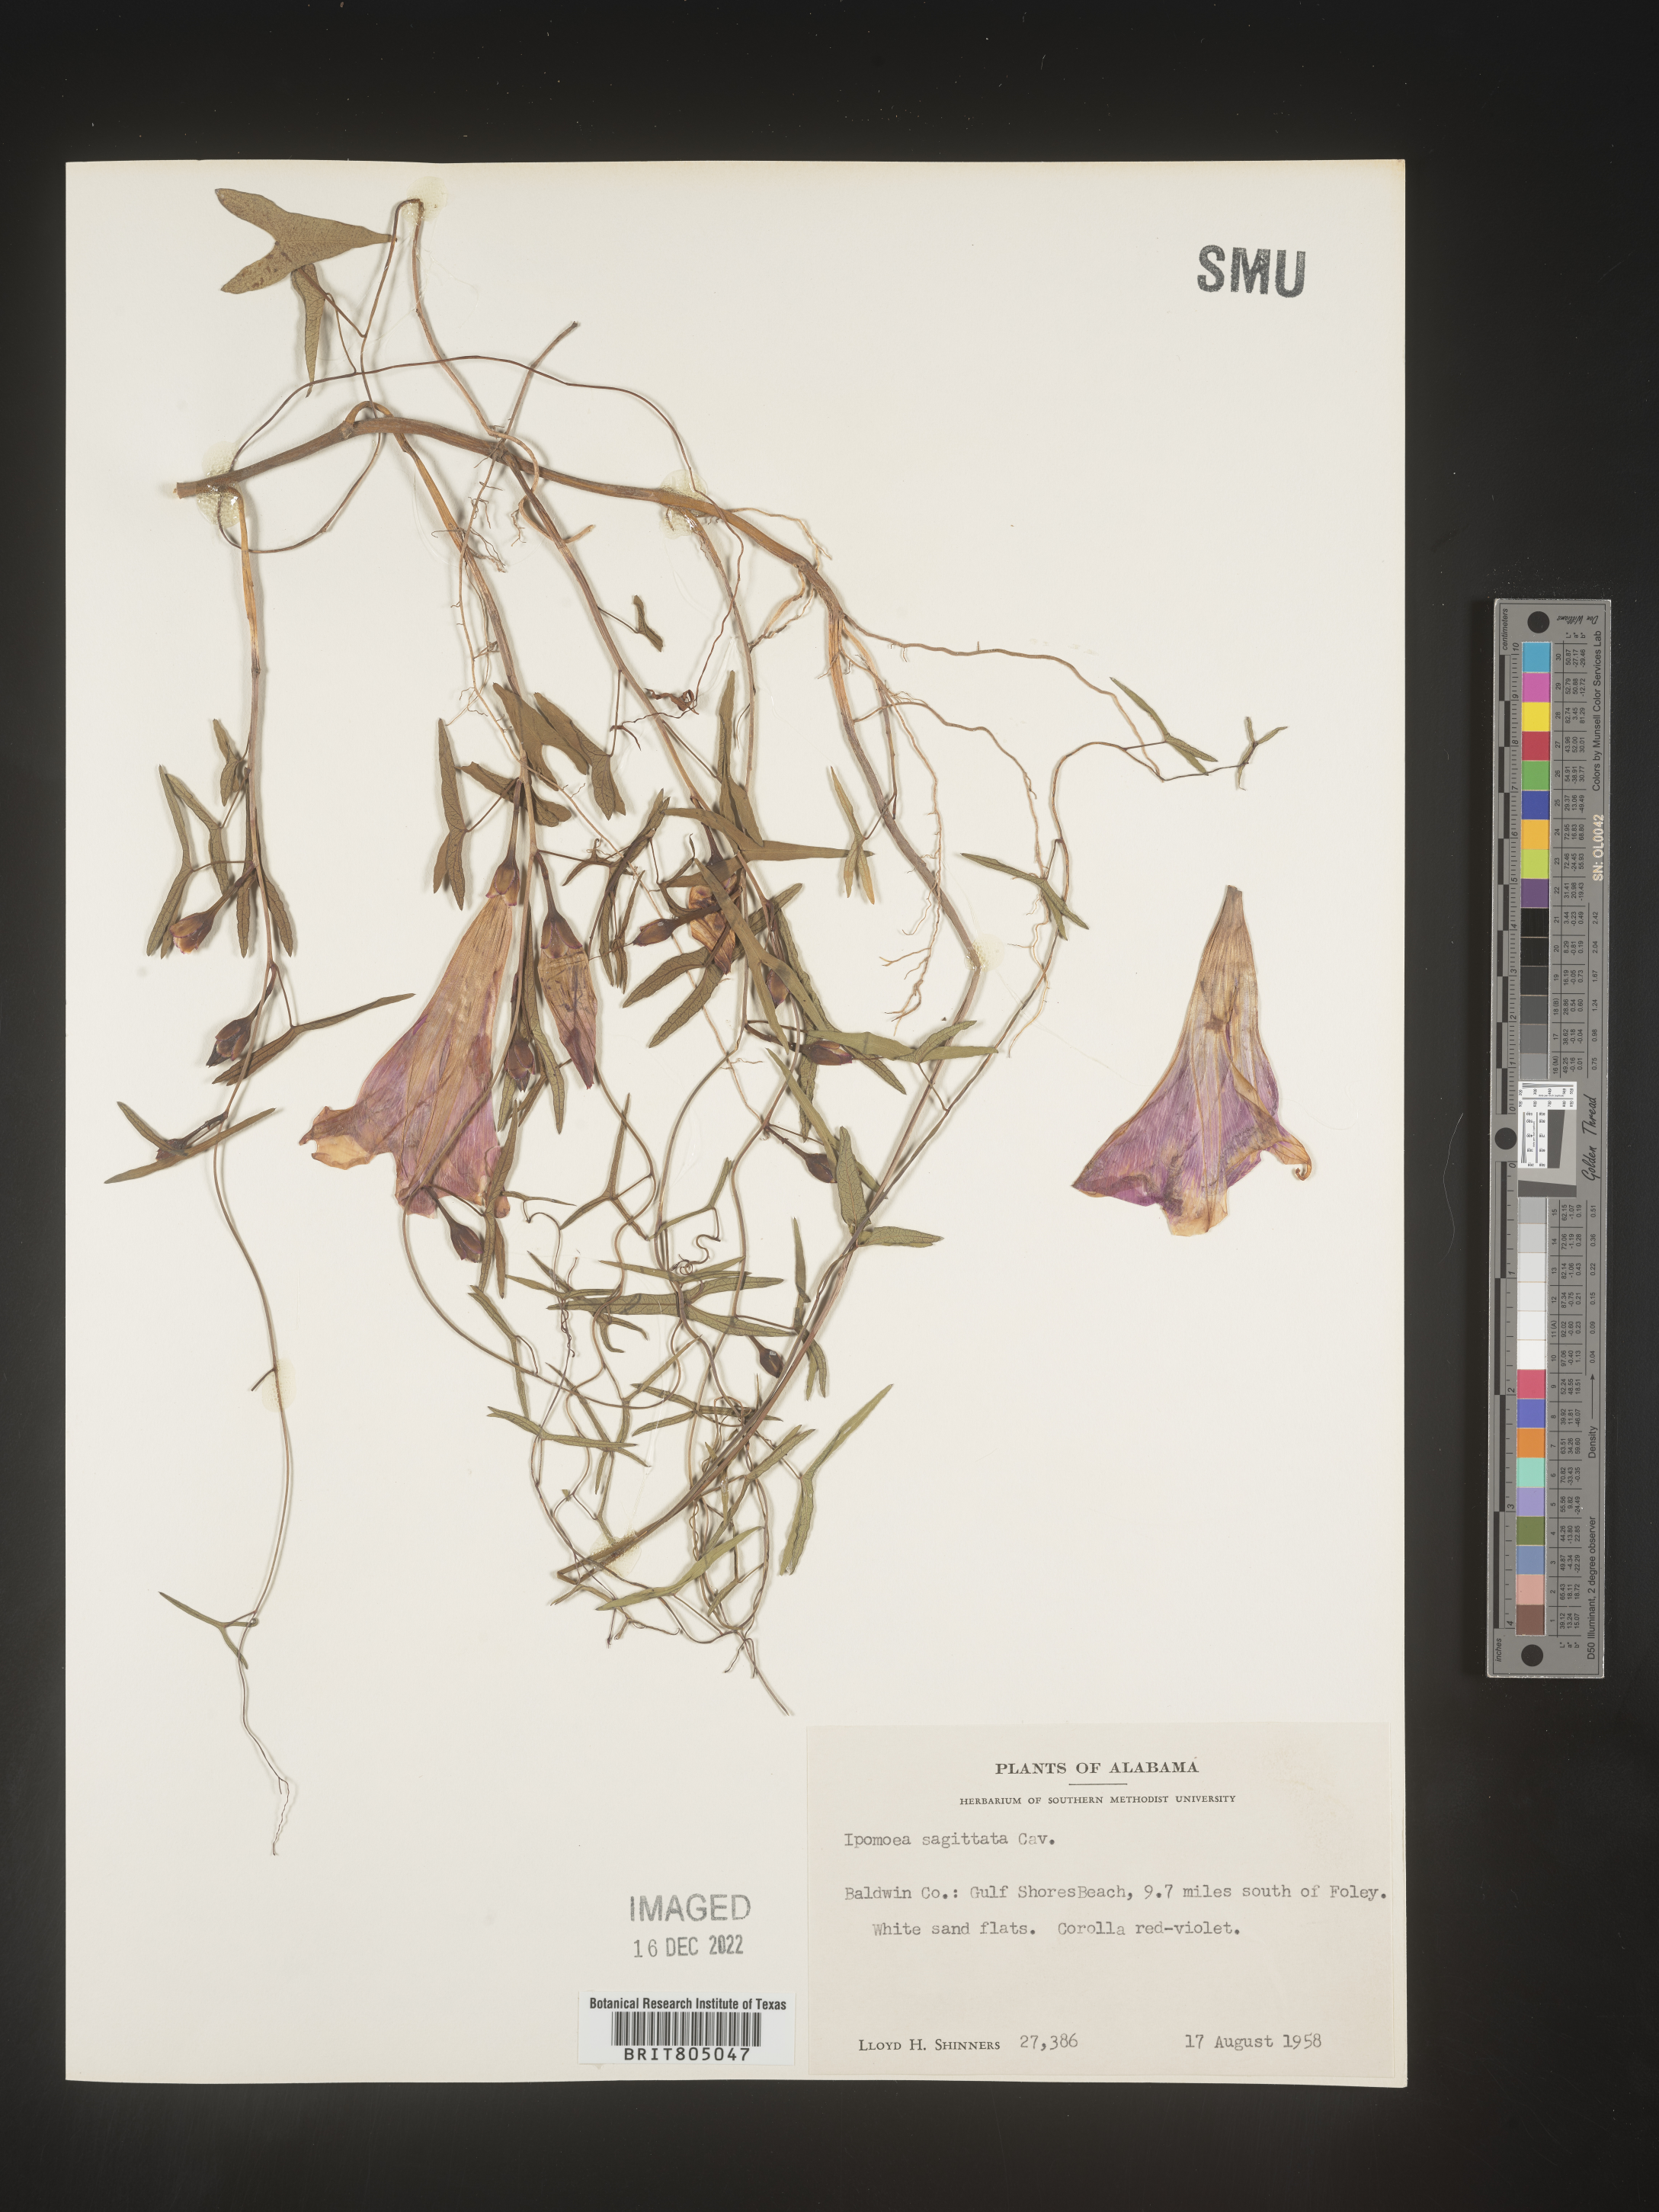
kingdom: Plantae
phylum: Tracheophyta
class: Magnoliopsida
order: Solanales
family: Convolvulaceae
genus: Ipomoea
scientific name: Ipomoea sinensis
